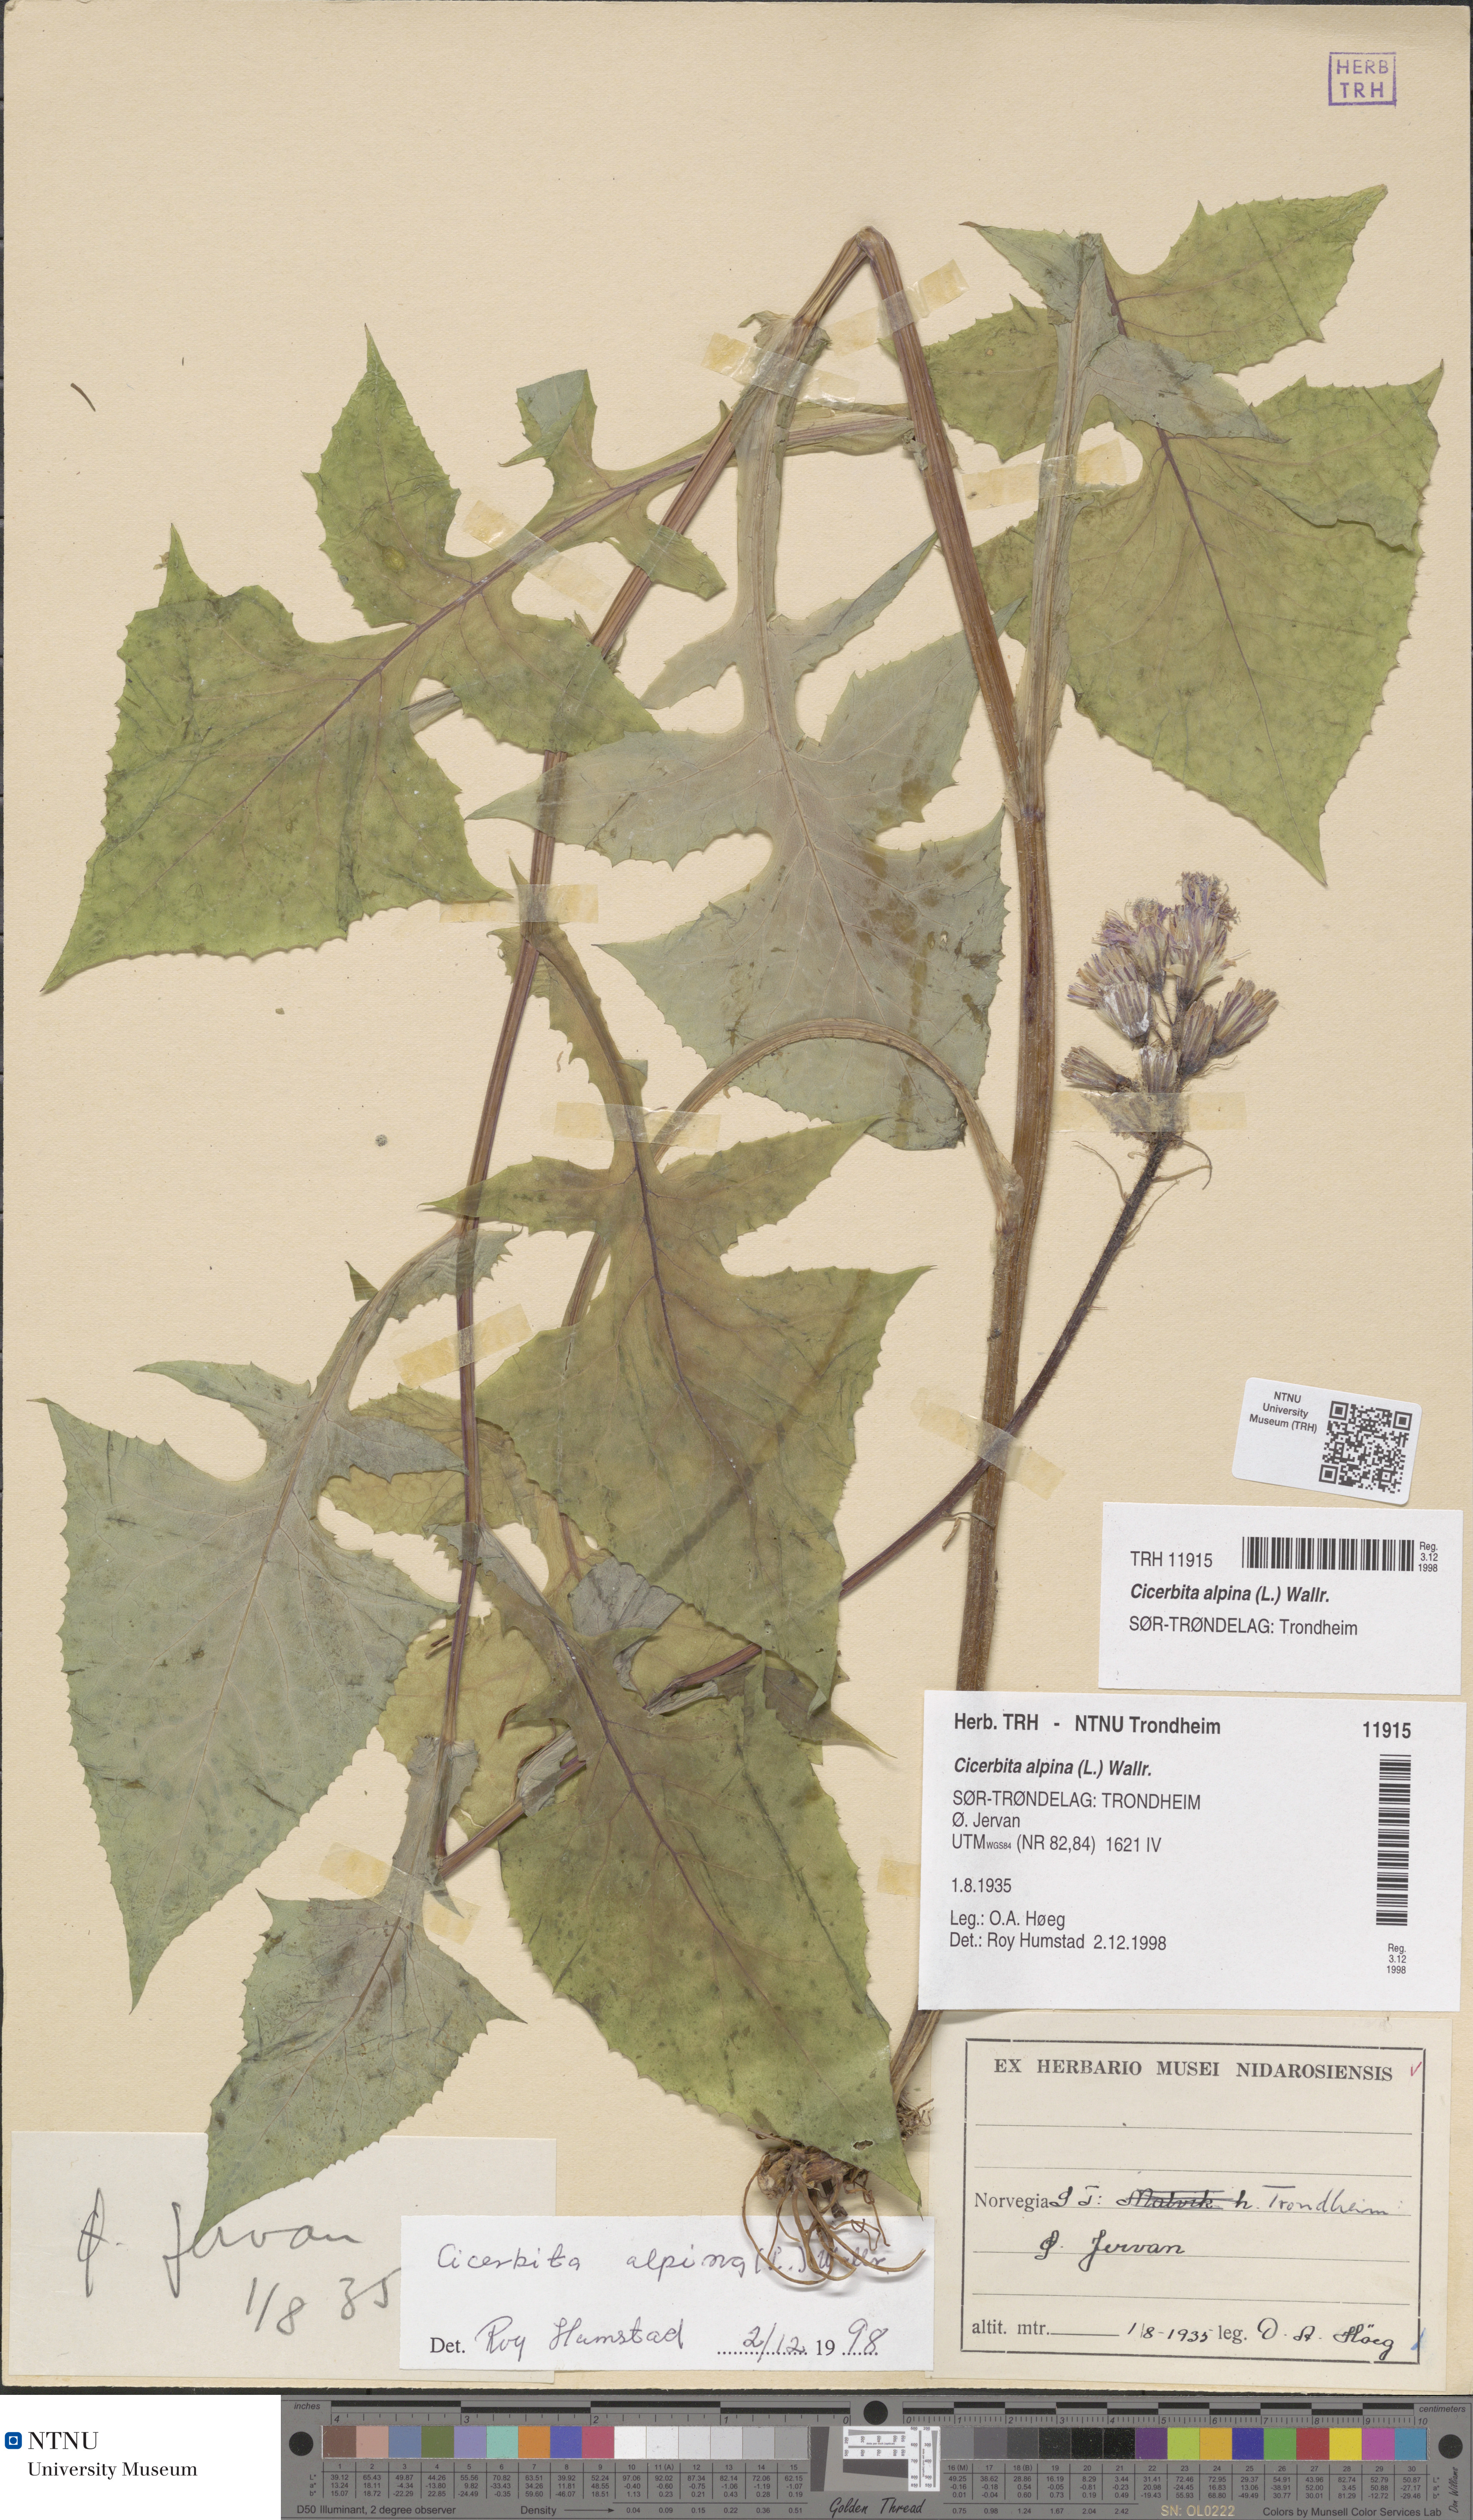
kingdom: Plantae
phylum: Tracheophyta
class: Magnoliopsida
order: Asterales
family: Asteraceae
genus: Cicerbita
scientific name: Cicerbita alpina
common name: Alpine blue-sow-thistle
